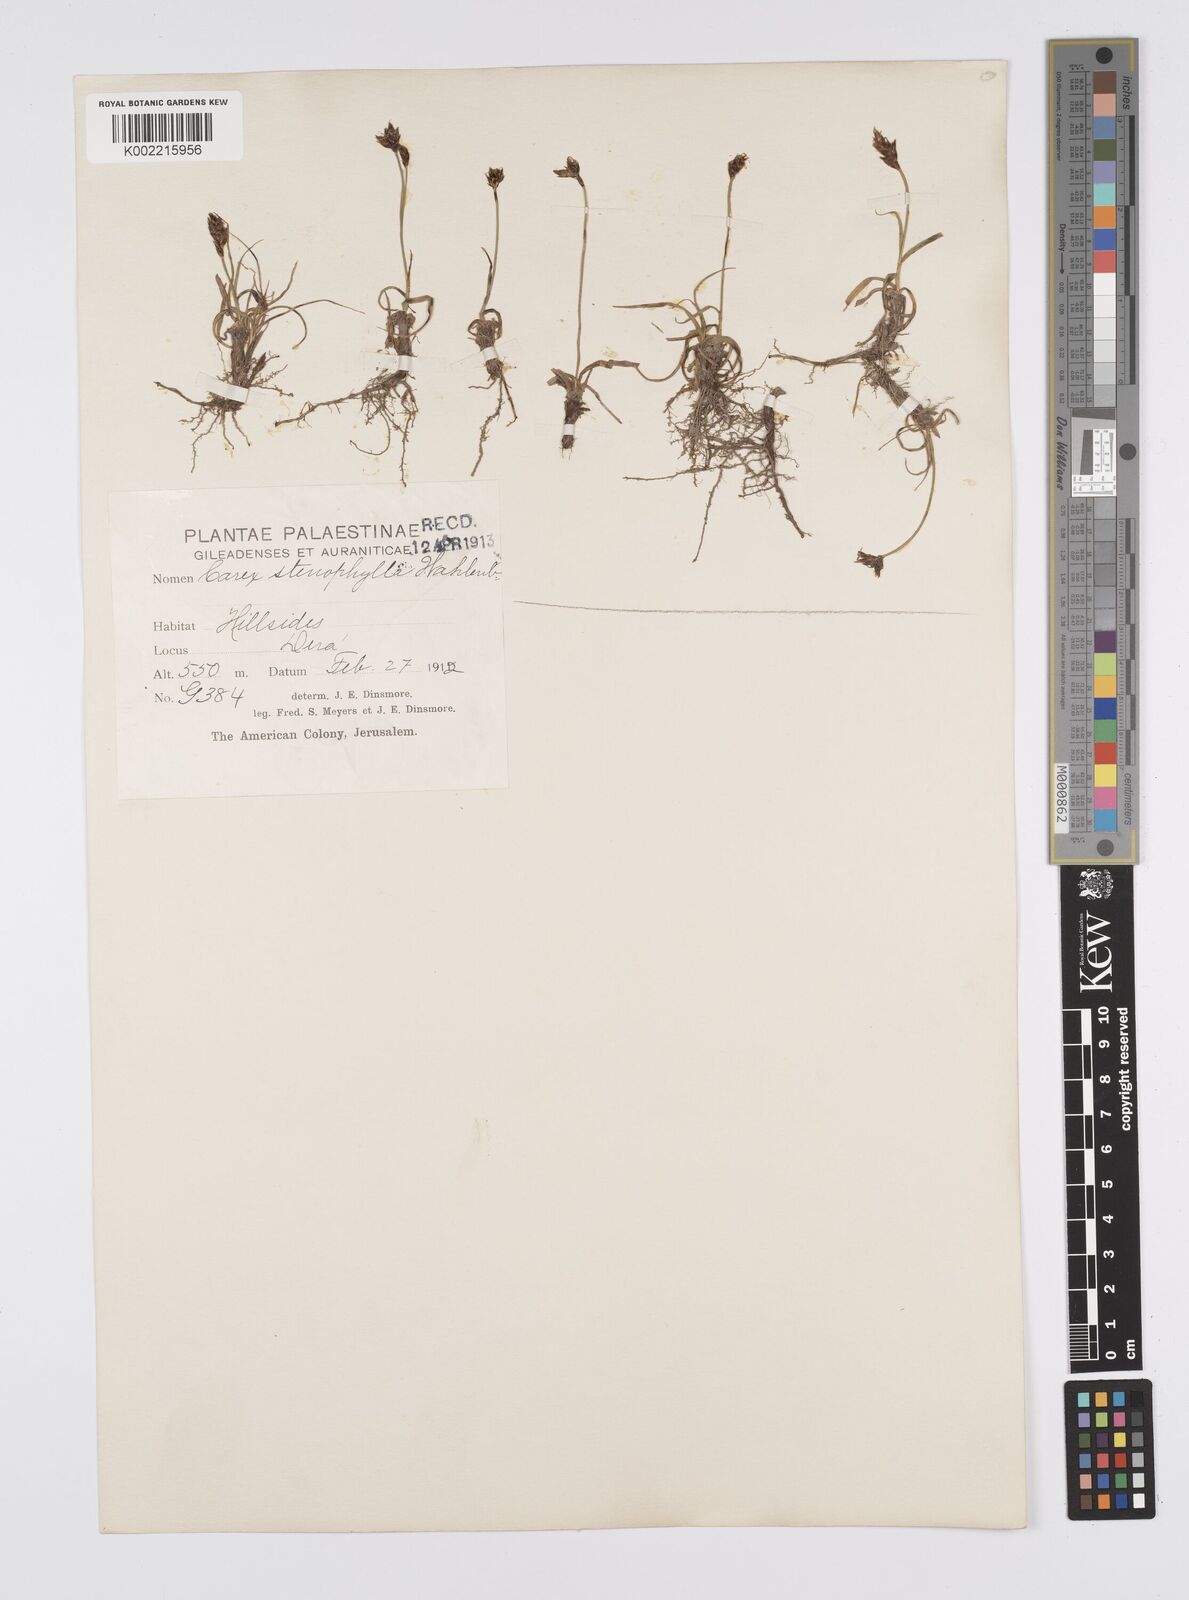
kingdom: Plantae
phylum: Tracheophyta
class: Liliopsida
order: Poales
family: Cyperaceae
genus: Carex
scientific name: Carex pachystylis
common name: Thick-stem sedge
